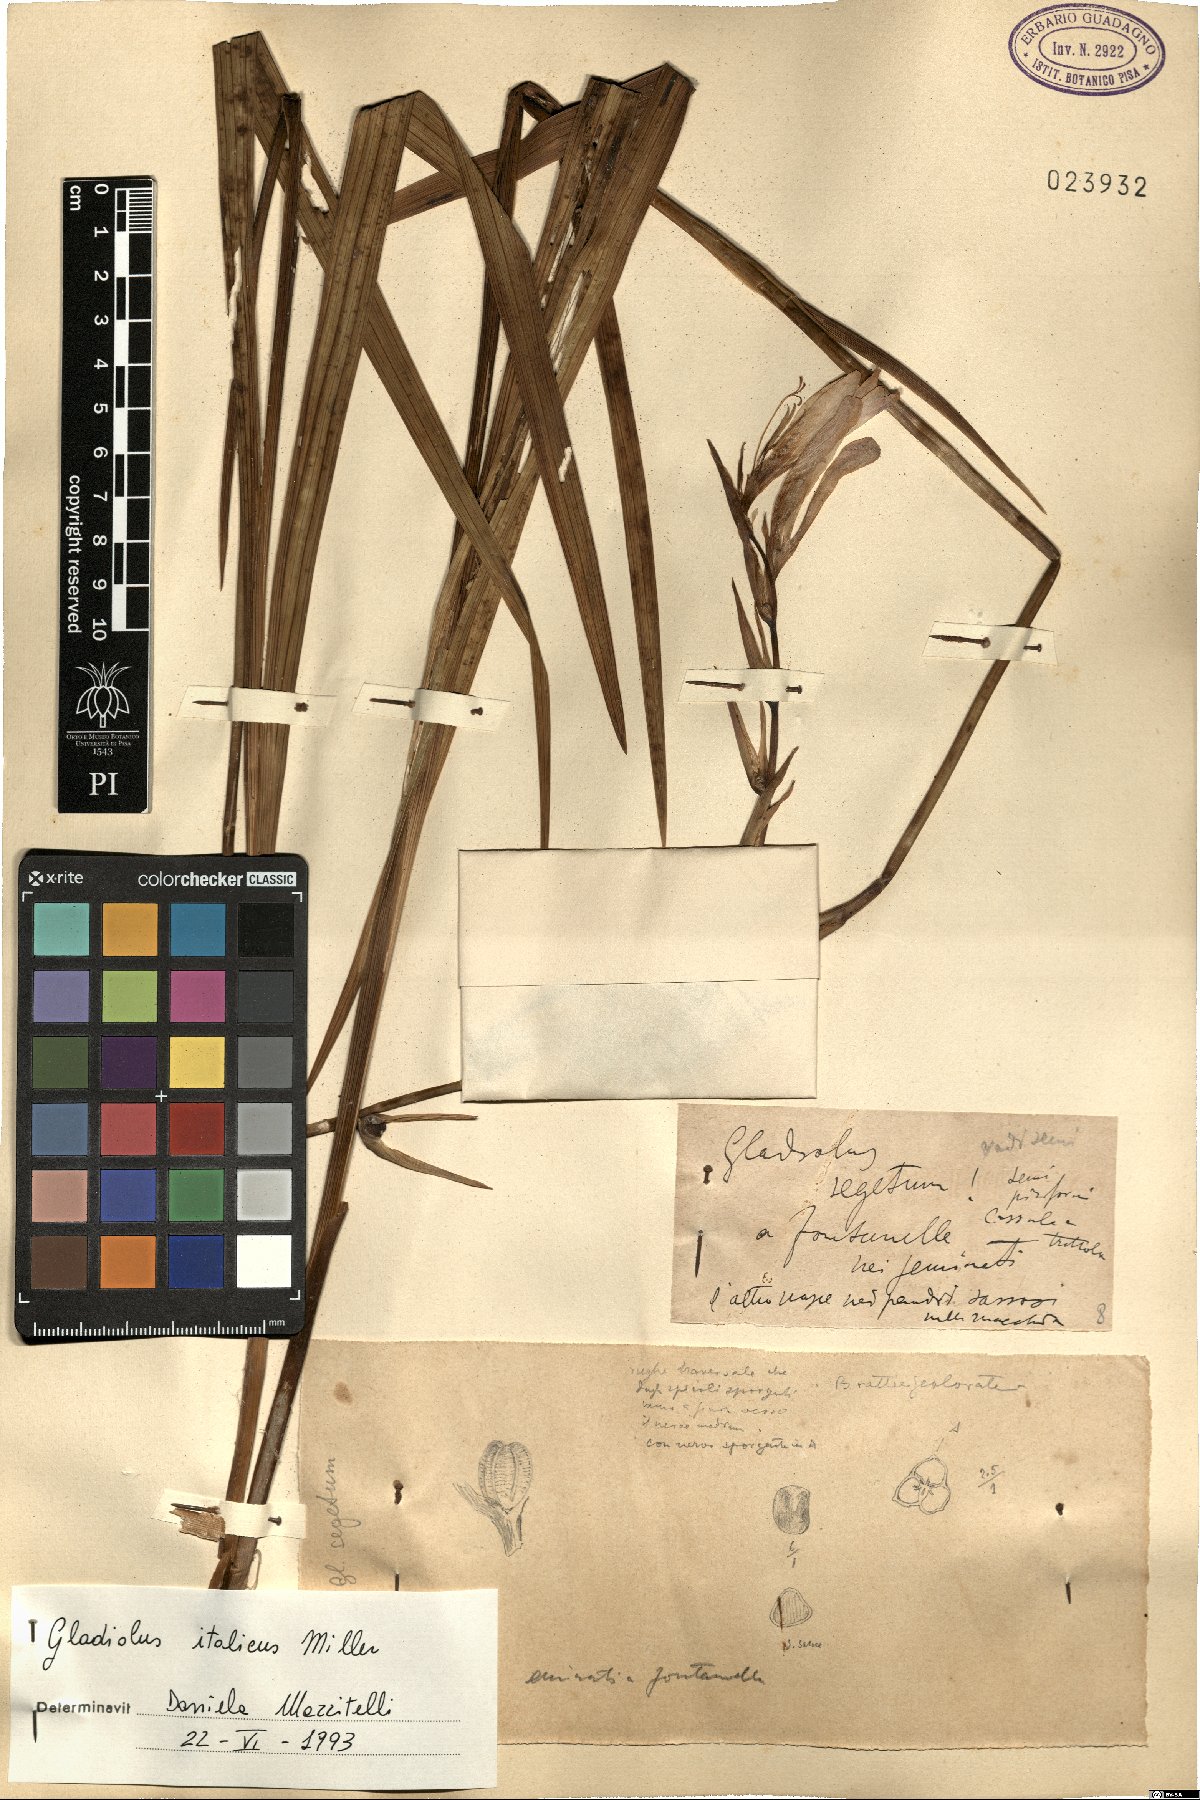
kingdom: Plantae
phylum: Tracheophyta
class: Liliopsida
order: Asparagales
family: Iridaceae
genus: Gladiolus
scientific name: Gladiolus italicus
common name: Field gladiolus
